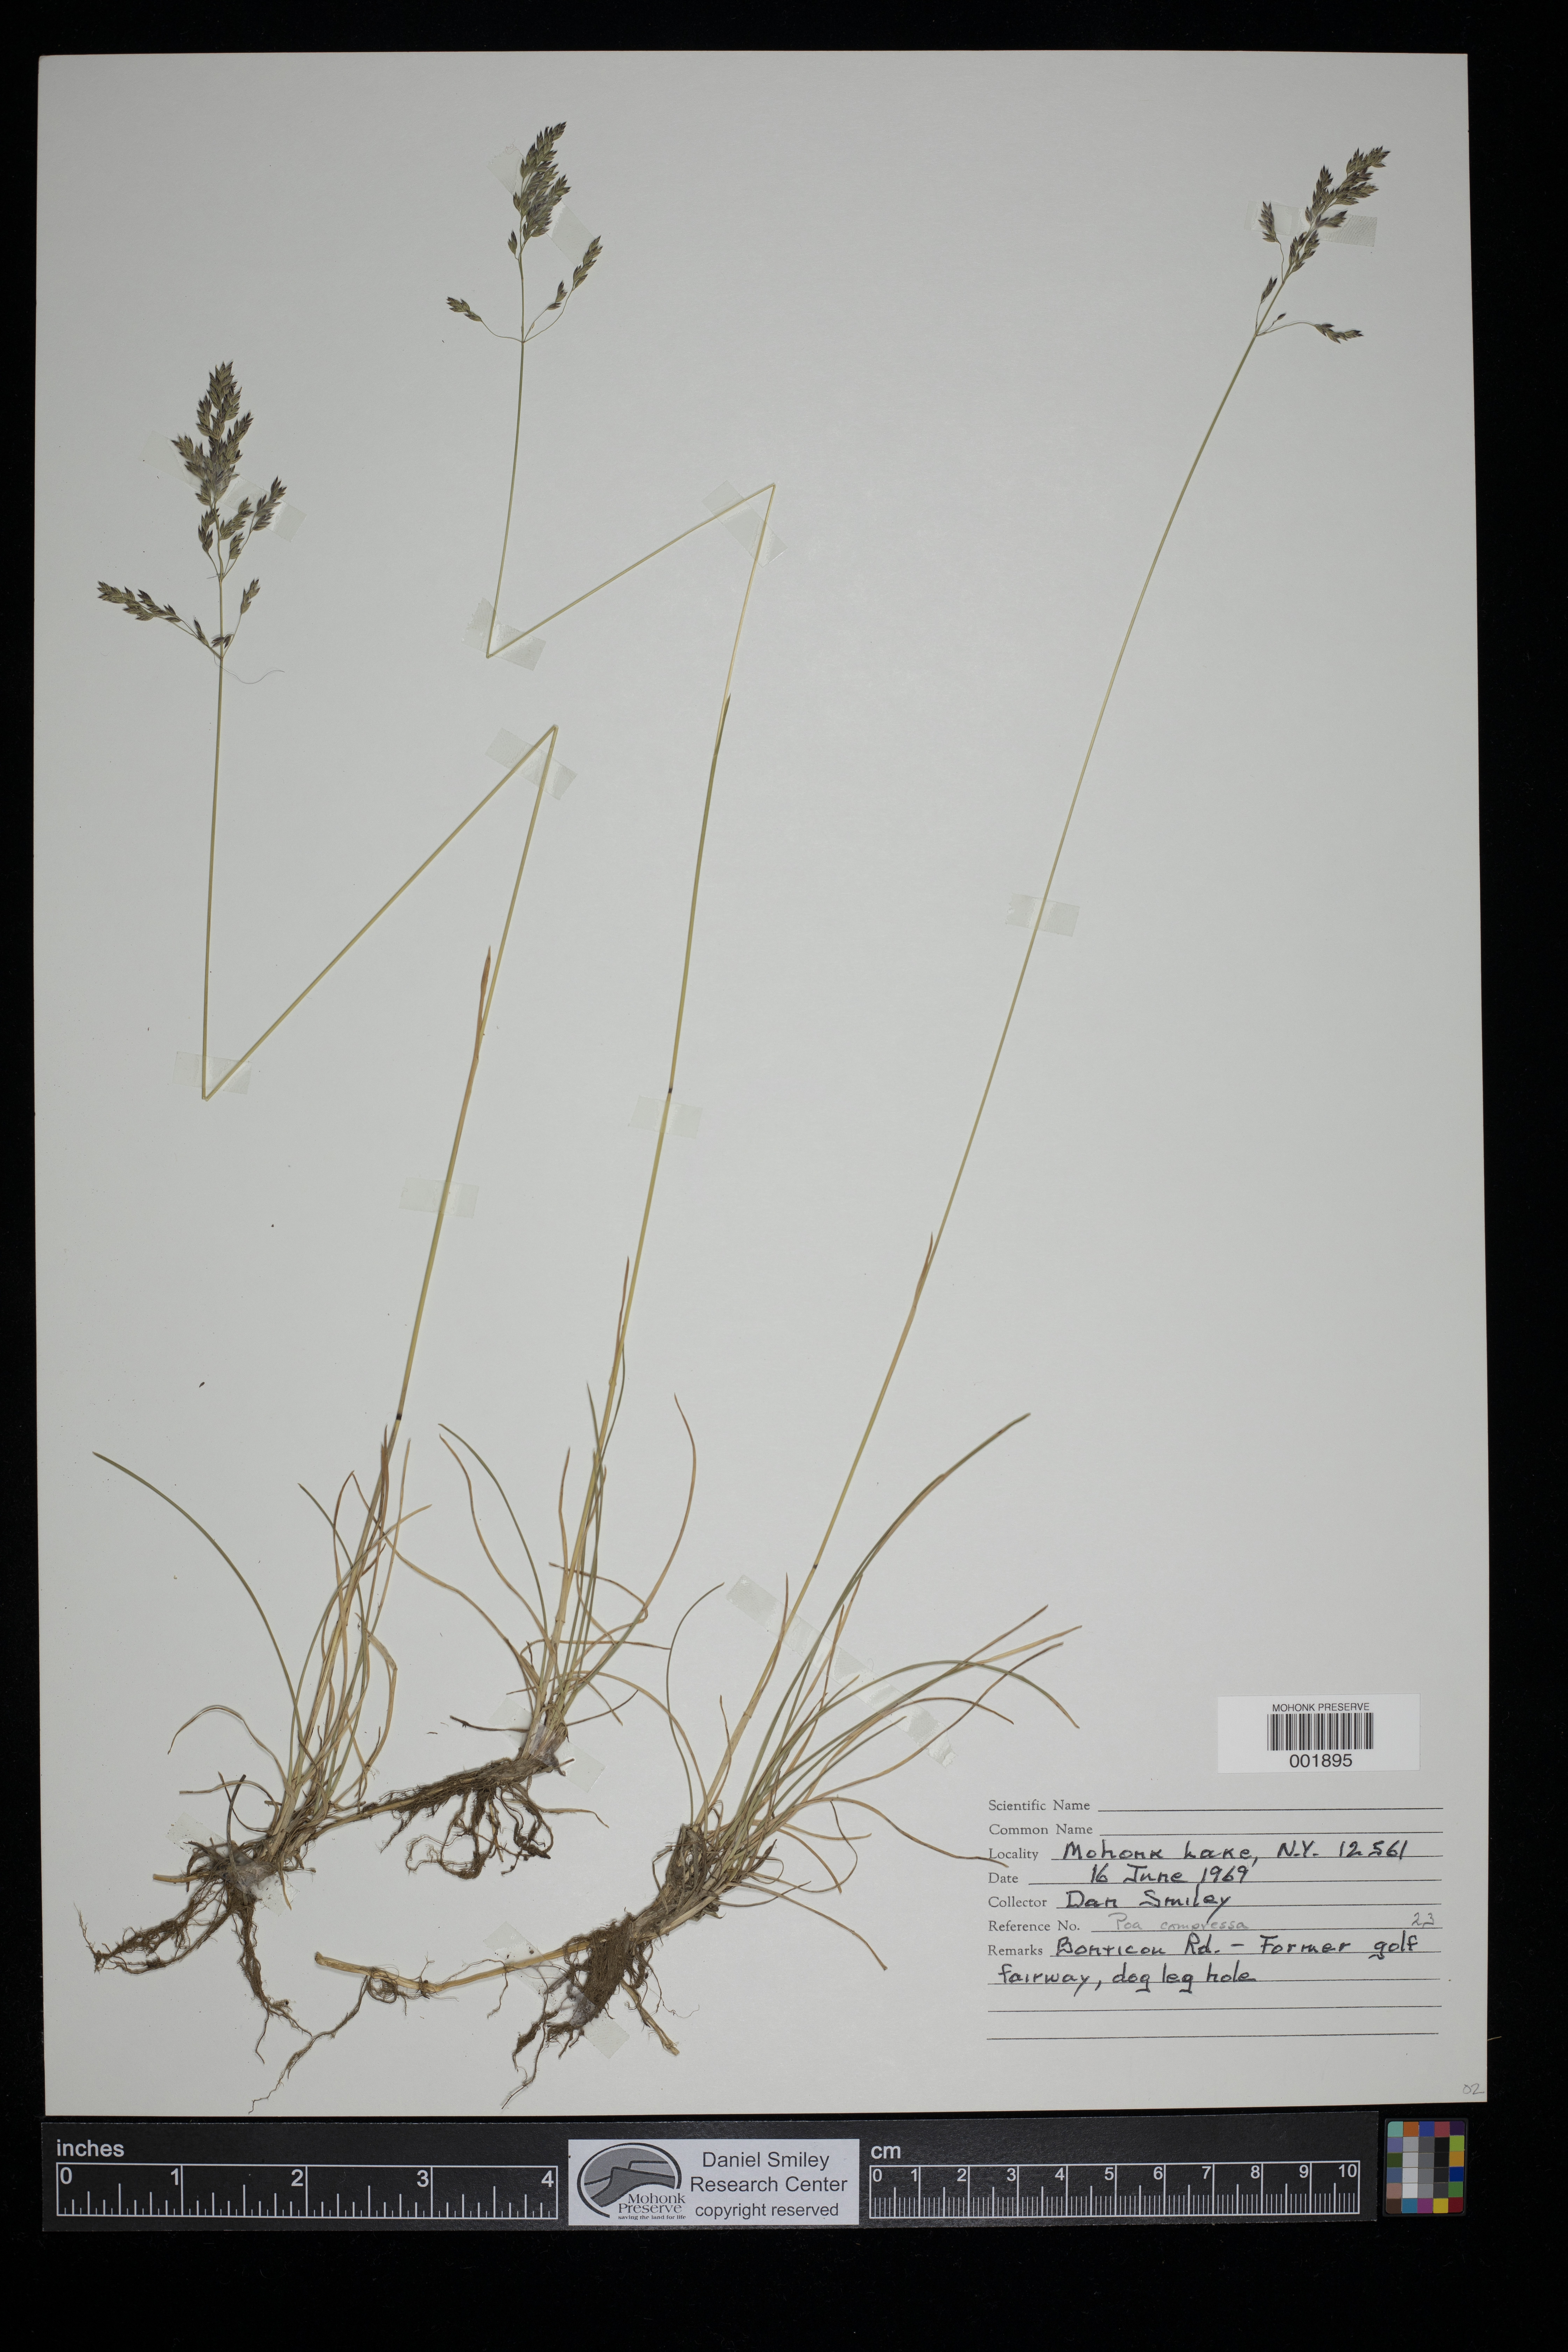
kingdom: Plantae
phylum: Tracheophyta
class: Liliopsida
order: Poales
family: Poaceae
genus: Poa
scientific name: Poa compressa
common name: Canada bluegrass
